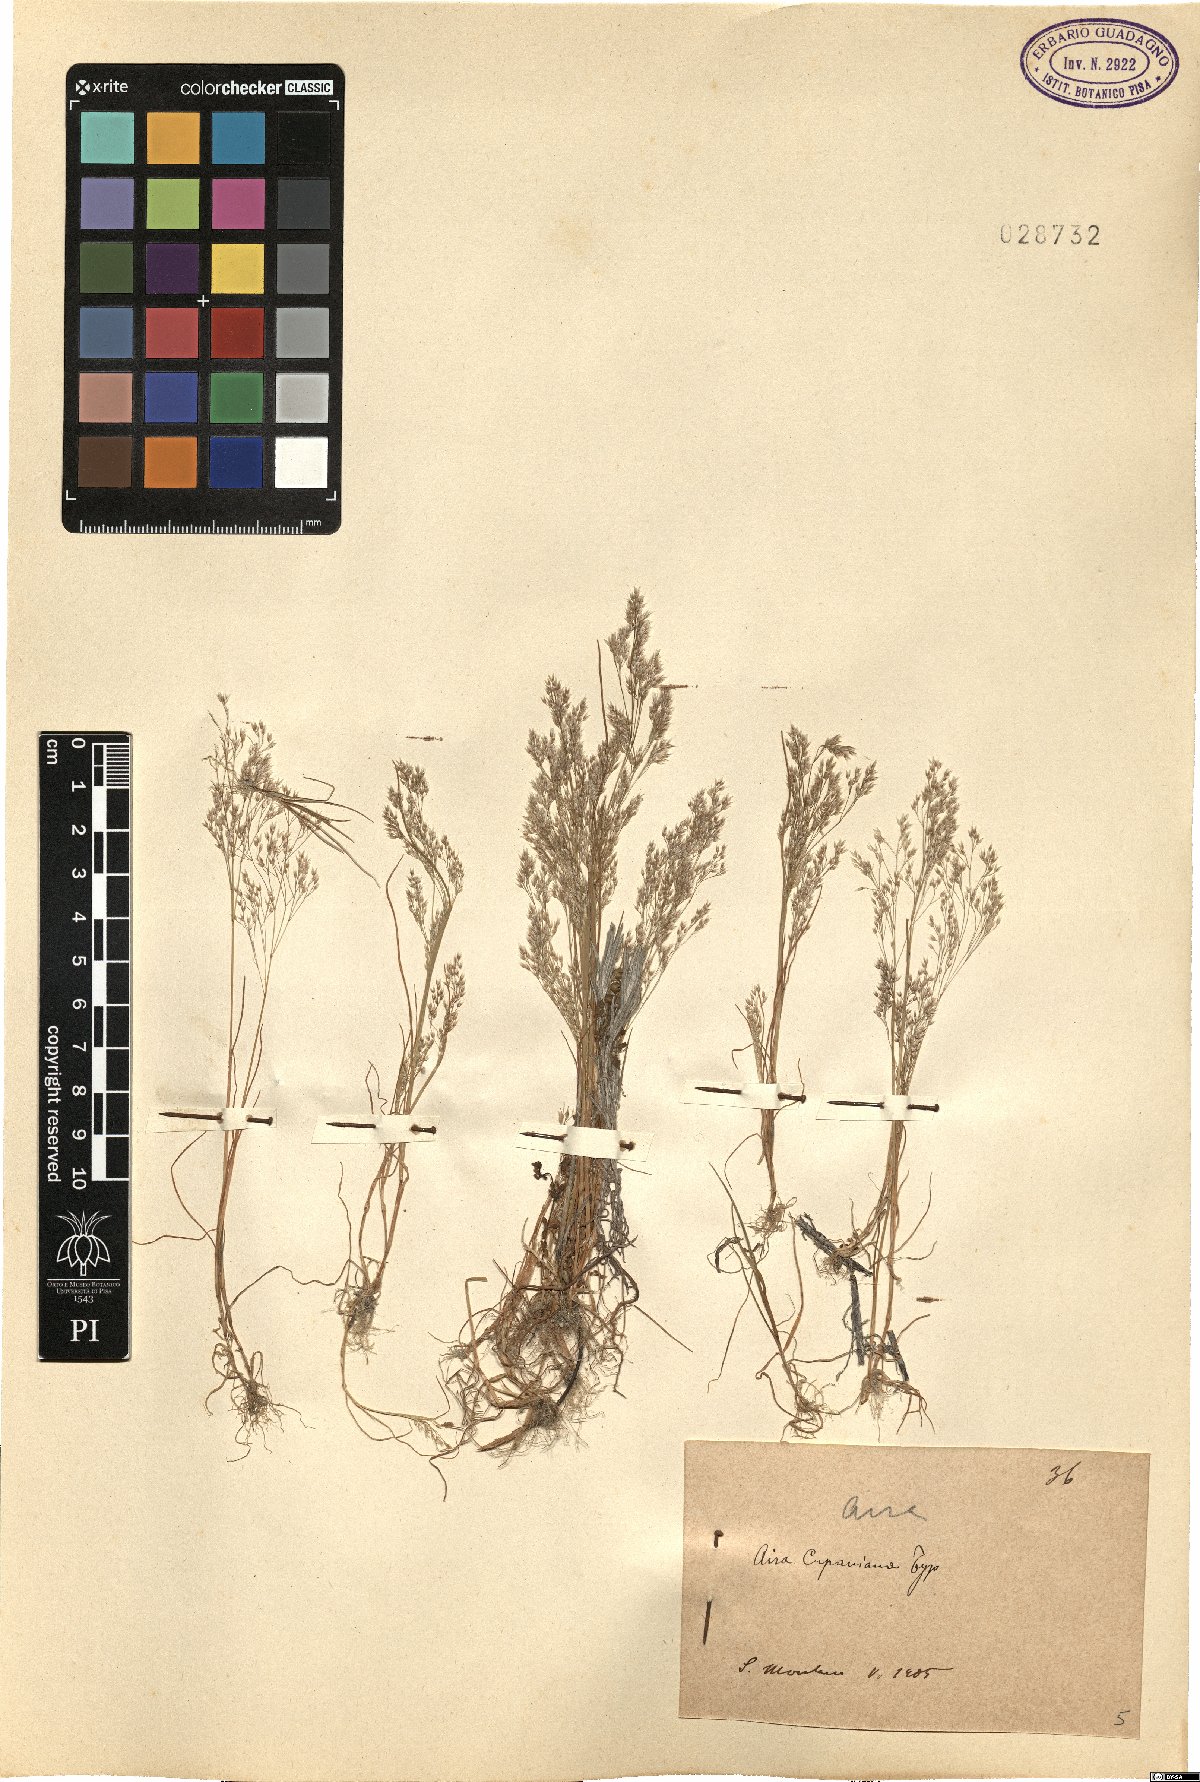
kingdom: Plantae
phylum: Tracheophyta
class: Liliopsida
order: Poales
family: Poaceae
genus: Aira
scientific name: Aira cupaniana
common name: Silver hairgrass
